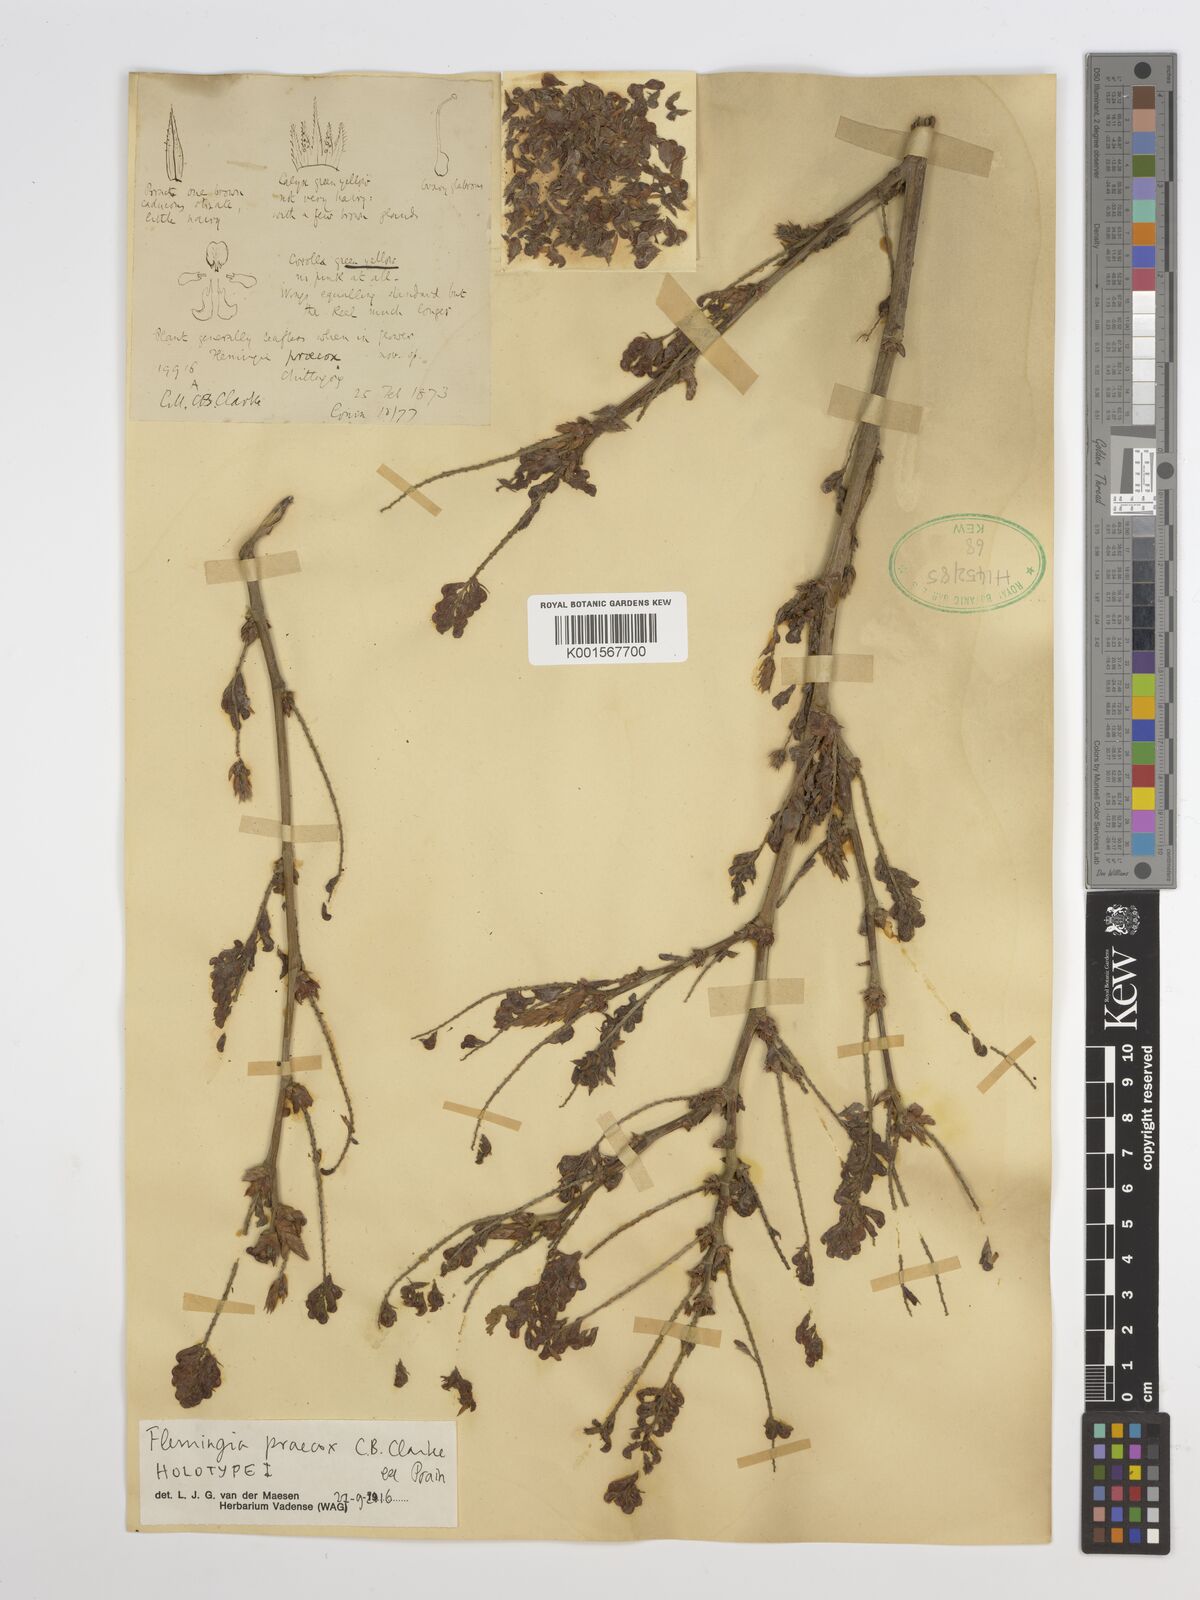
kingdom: Plantae
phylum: Tracheophyta
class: Magnoliopsida
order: Fabales
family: Fabaceae
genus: Flemingia
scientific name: Flemingia praecox
